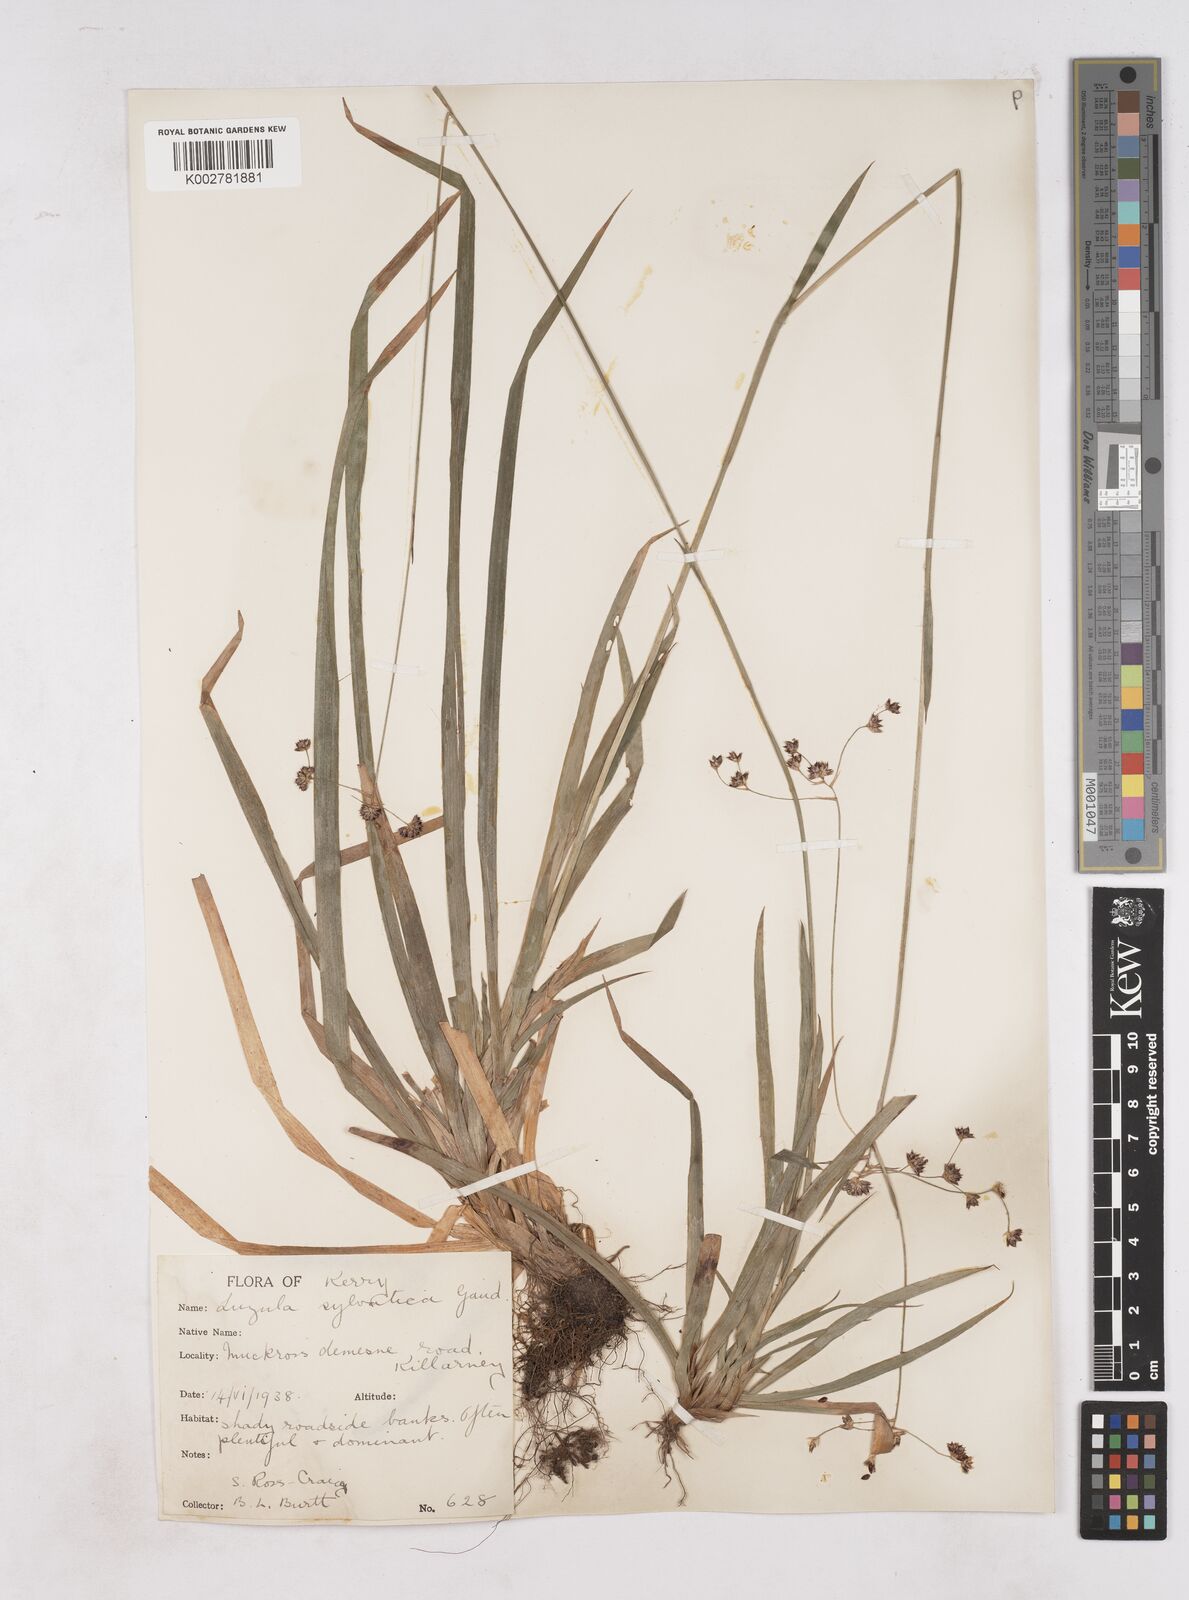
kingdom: Plantae
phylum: Tracheophyta
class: Liliopsida
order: Poales
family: Juncaceae
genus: Luzula
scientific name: Luzula sylvatica
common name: Great wood-rush
